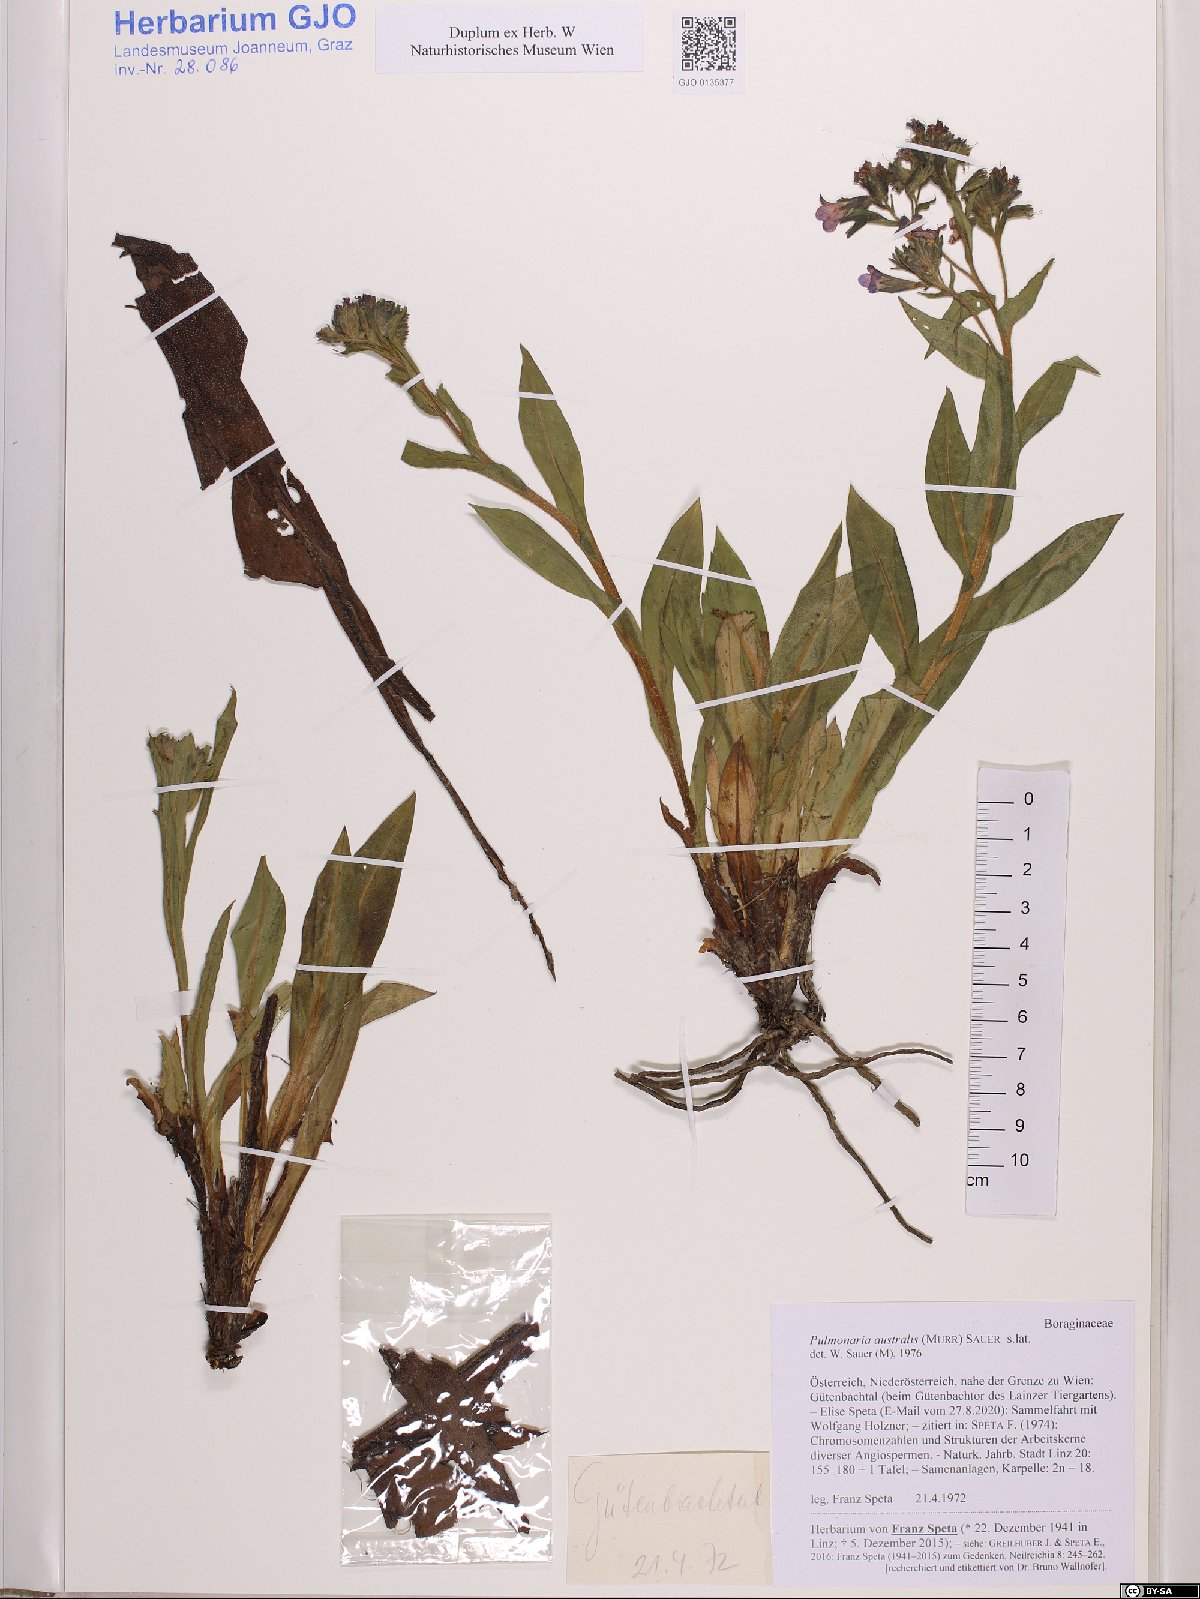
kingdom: Plantae
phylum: Tracheophyta
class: Magnoliopsida
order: Boraginales
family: Boraginaceae
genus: Pulmonaria
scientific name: Pulmonaria australis
